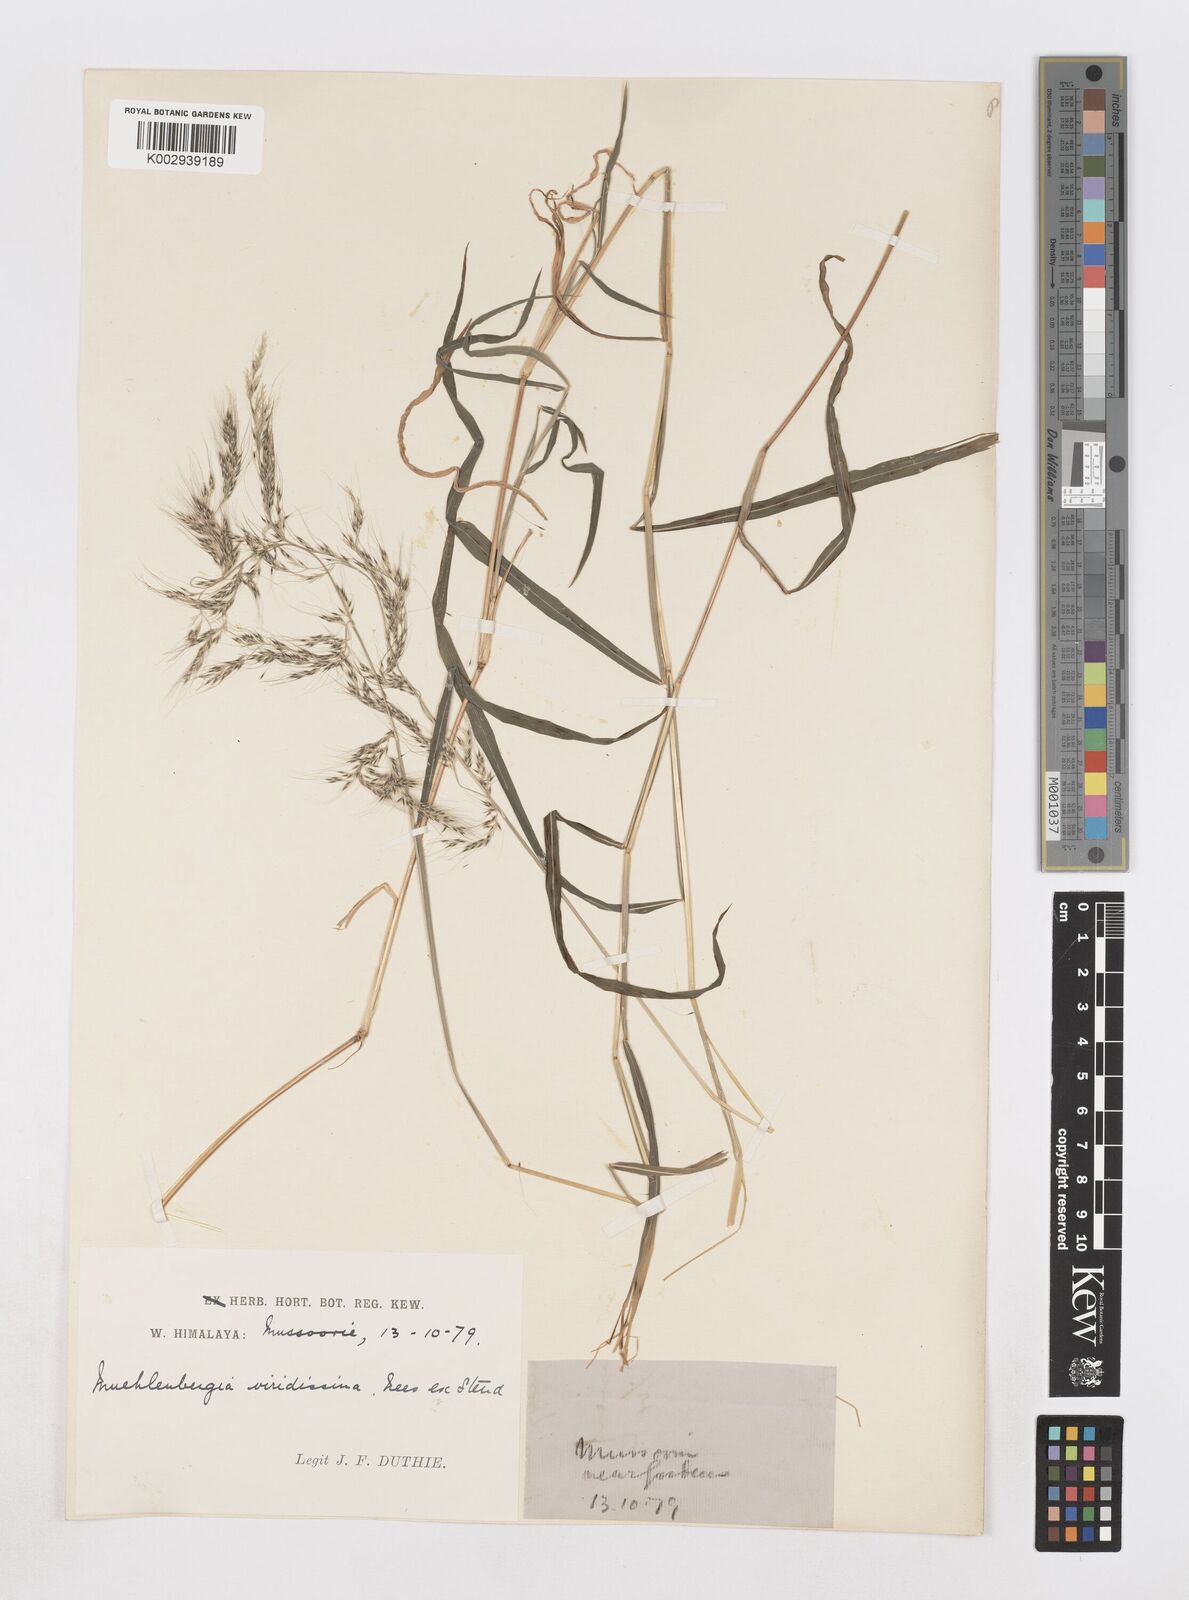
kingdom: Plantae
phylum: Tracheophyta
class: Liliopsida
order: Poales
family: Poaceae
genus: Muhlenbergia
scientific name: Muhlenbergia huegelii
